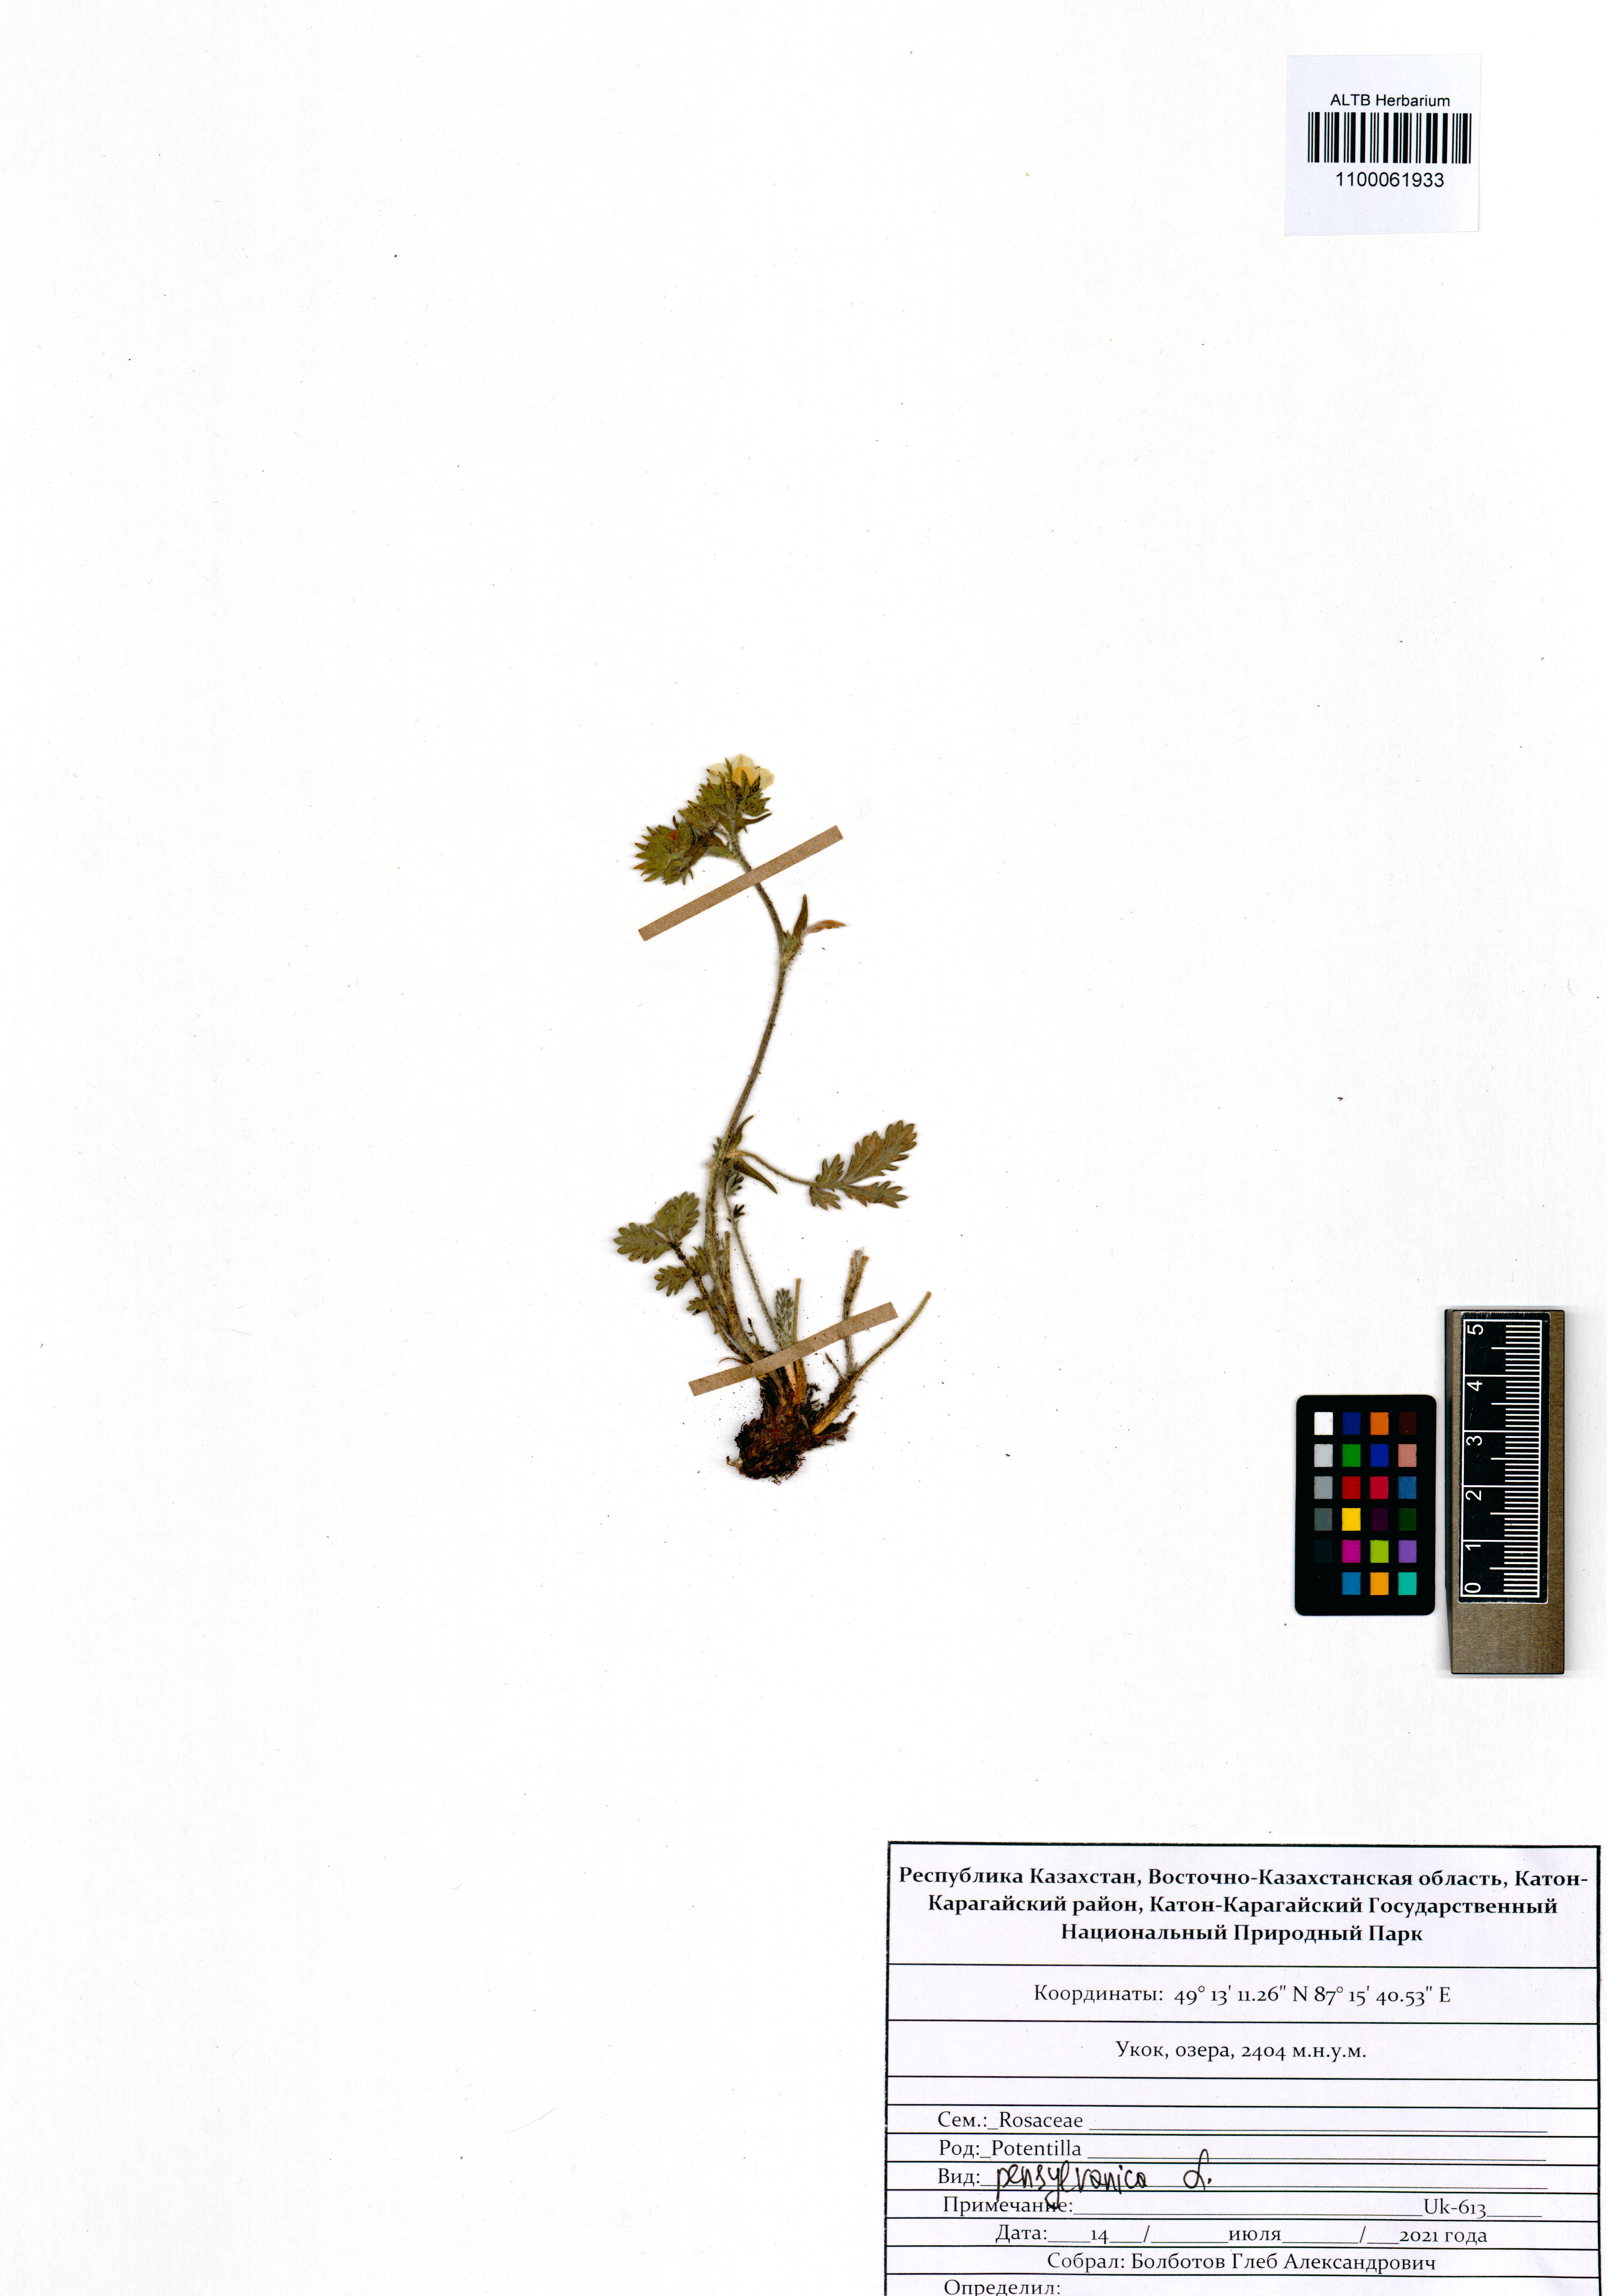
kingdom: Plantae
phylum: Tracheophyta
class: Magnoliopsida
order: Rosales
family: Rosaceae
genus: Potentilla
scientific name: Potentilla pensylvanica
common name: Pennsylvania cinquefoil
